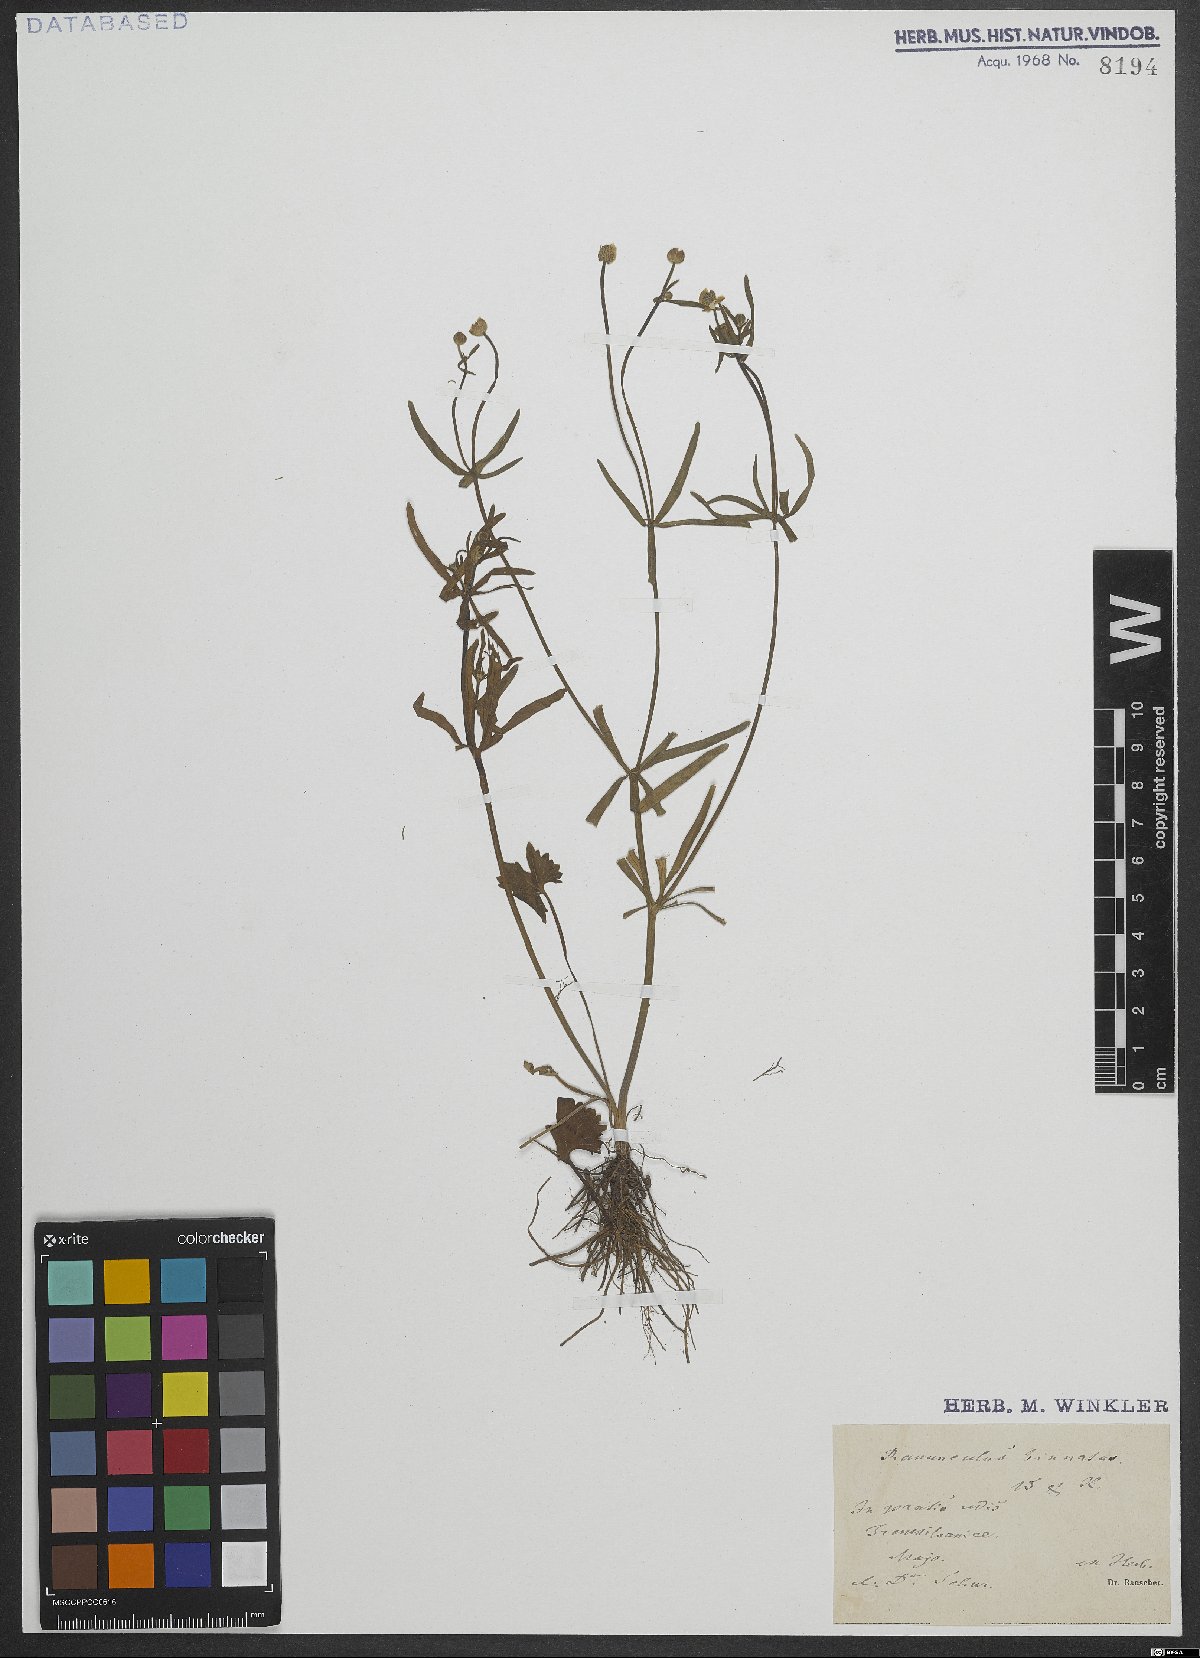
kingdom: Plantae
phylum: Tracheophyta
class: Magnoliopsida
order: Ranunculales
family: Ranunculaceae
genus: Ranunculus
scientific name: Ranunculus binatus
